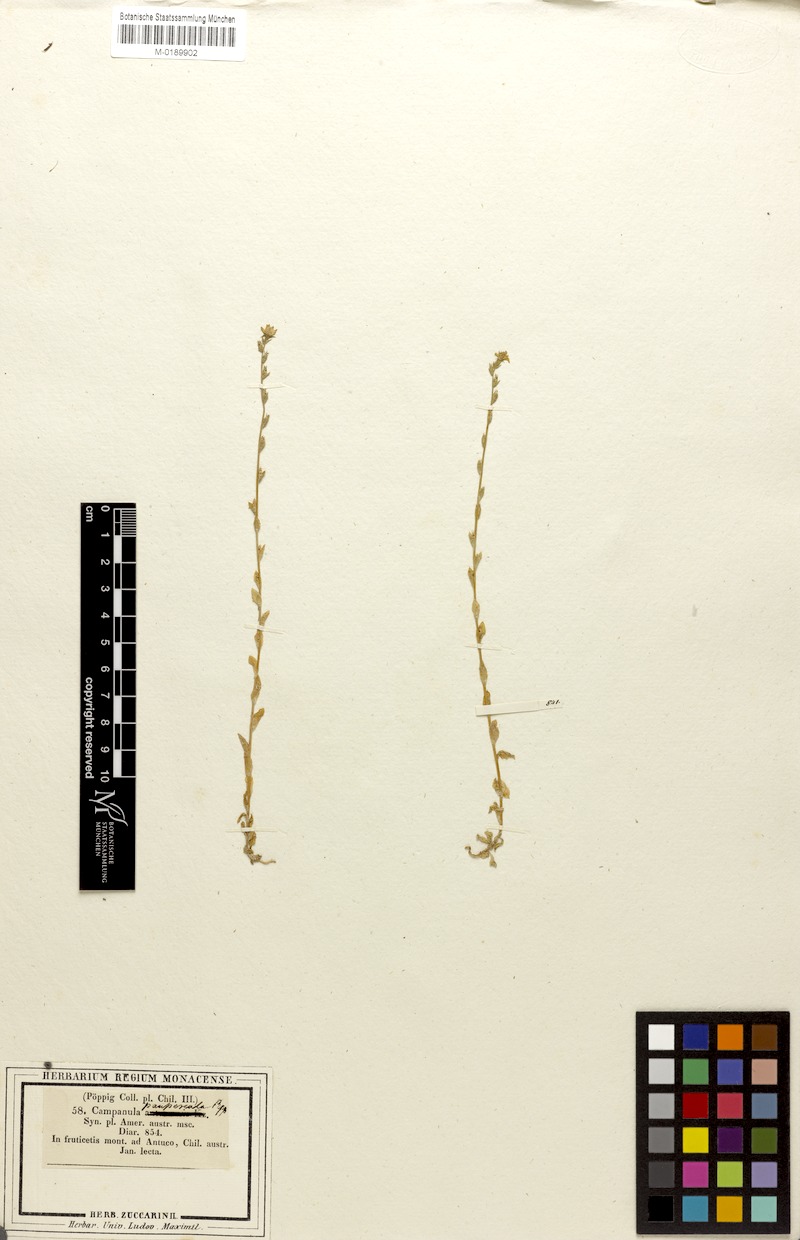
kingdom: Plantae
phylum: Tracheophyta
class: Magnoliopsida
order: Asterales
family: Campanulaceae
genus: Triodanis
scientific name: Triodanis perfoliata
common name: Clasping venus' looking-glass
